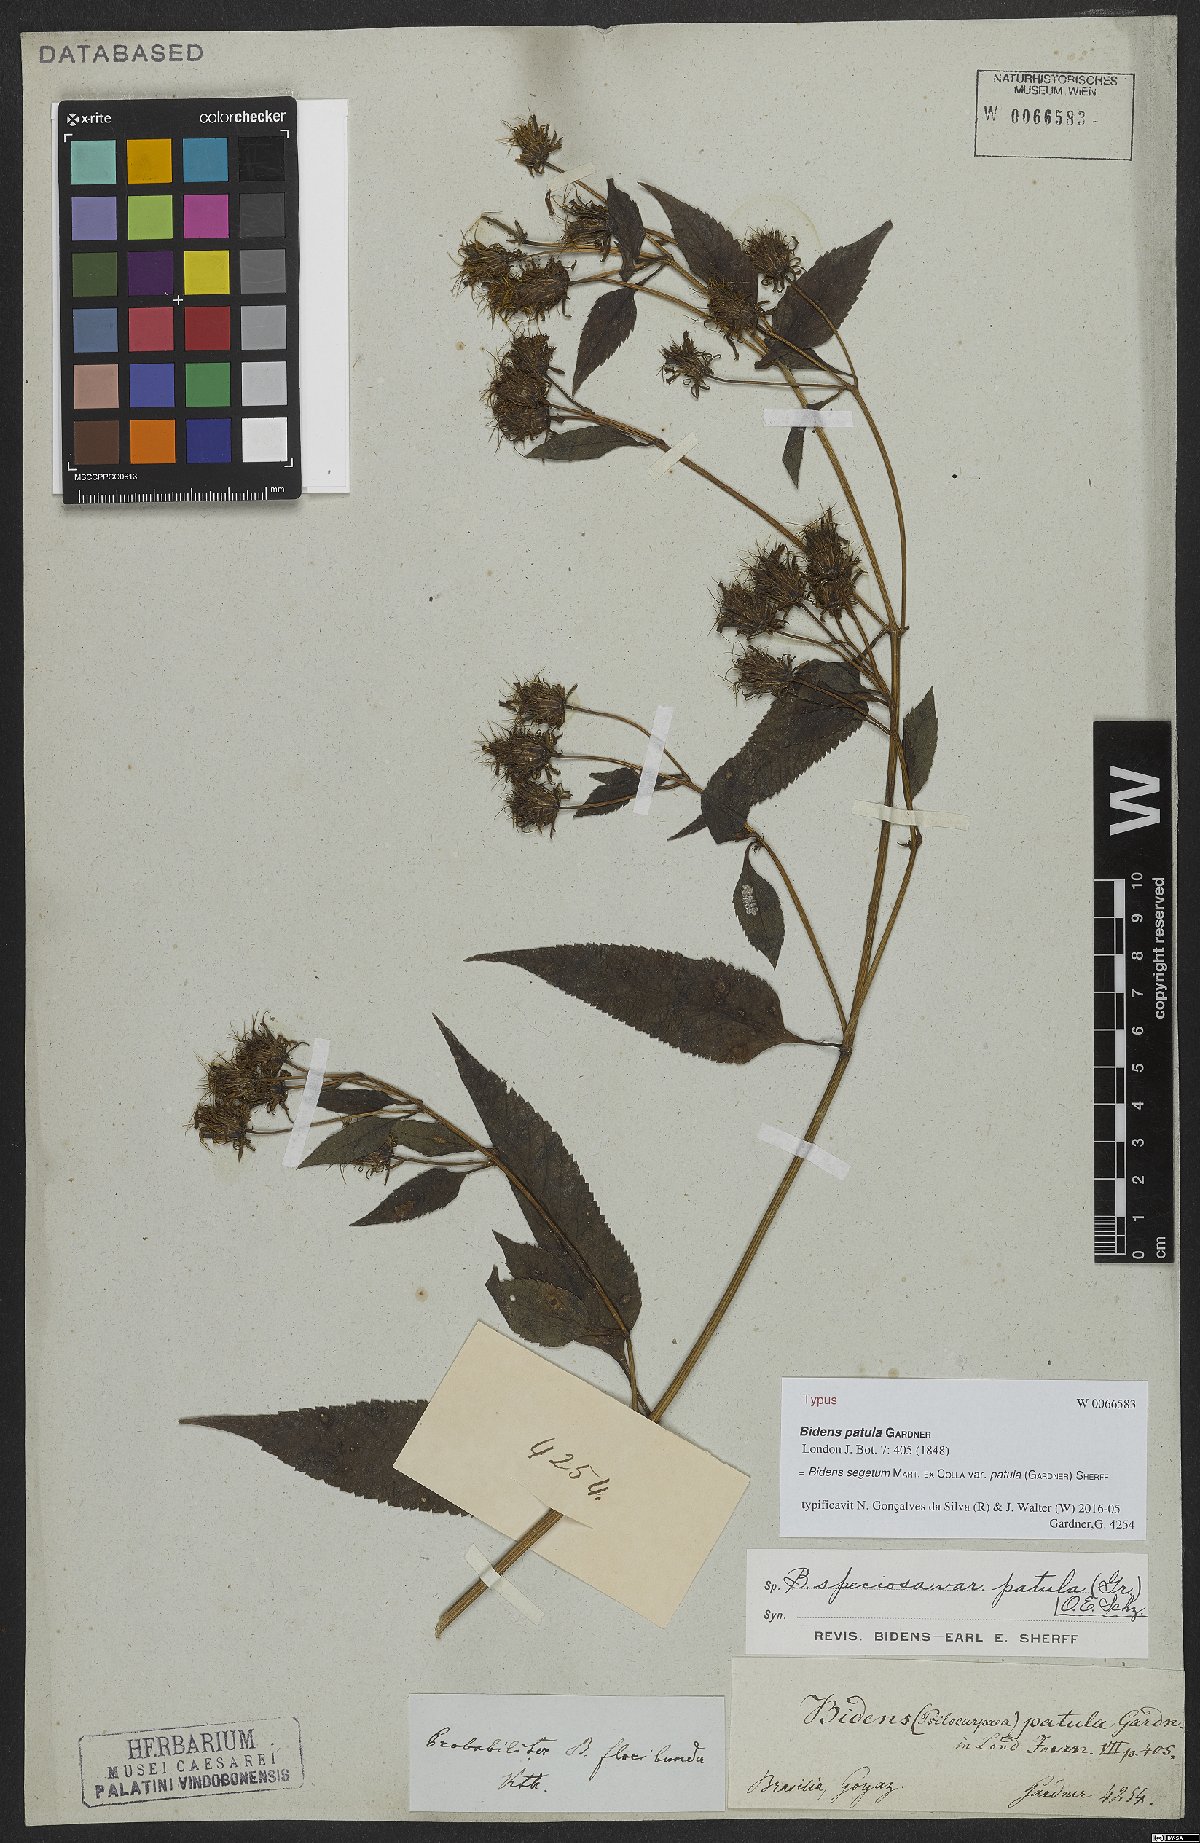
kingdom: Plantae
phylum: Tracheophyta
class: Magnoliopsida
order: Asterales
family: Asteraceae
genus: Bidens
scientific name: Bidens segetum
